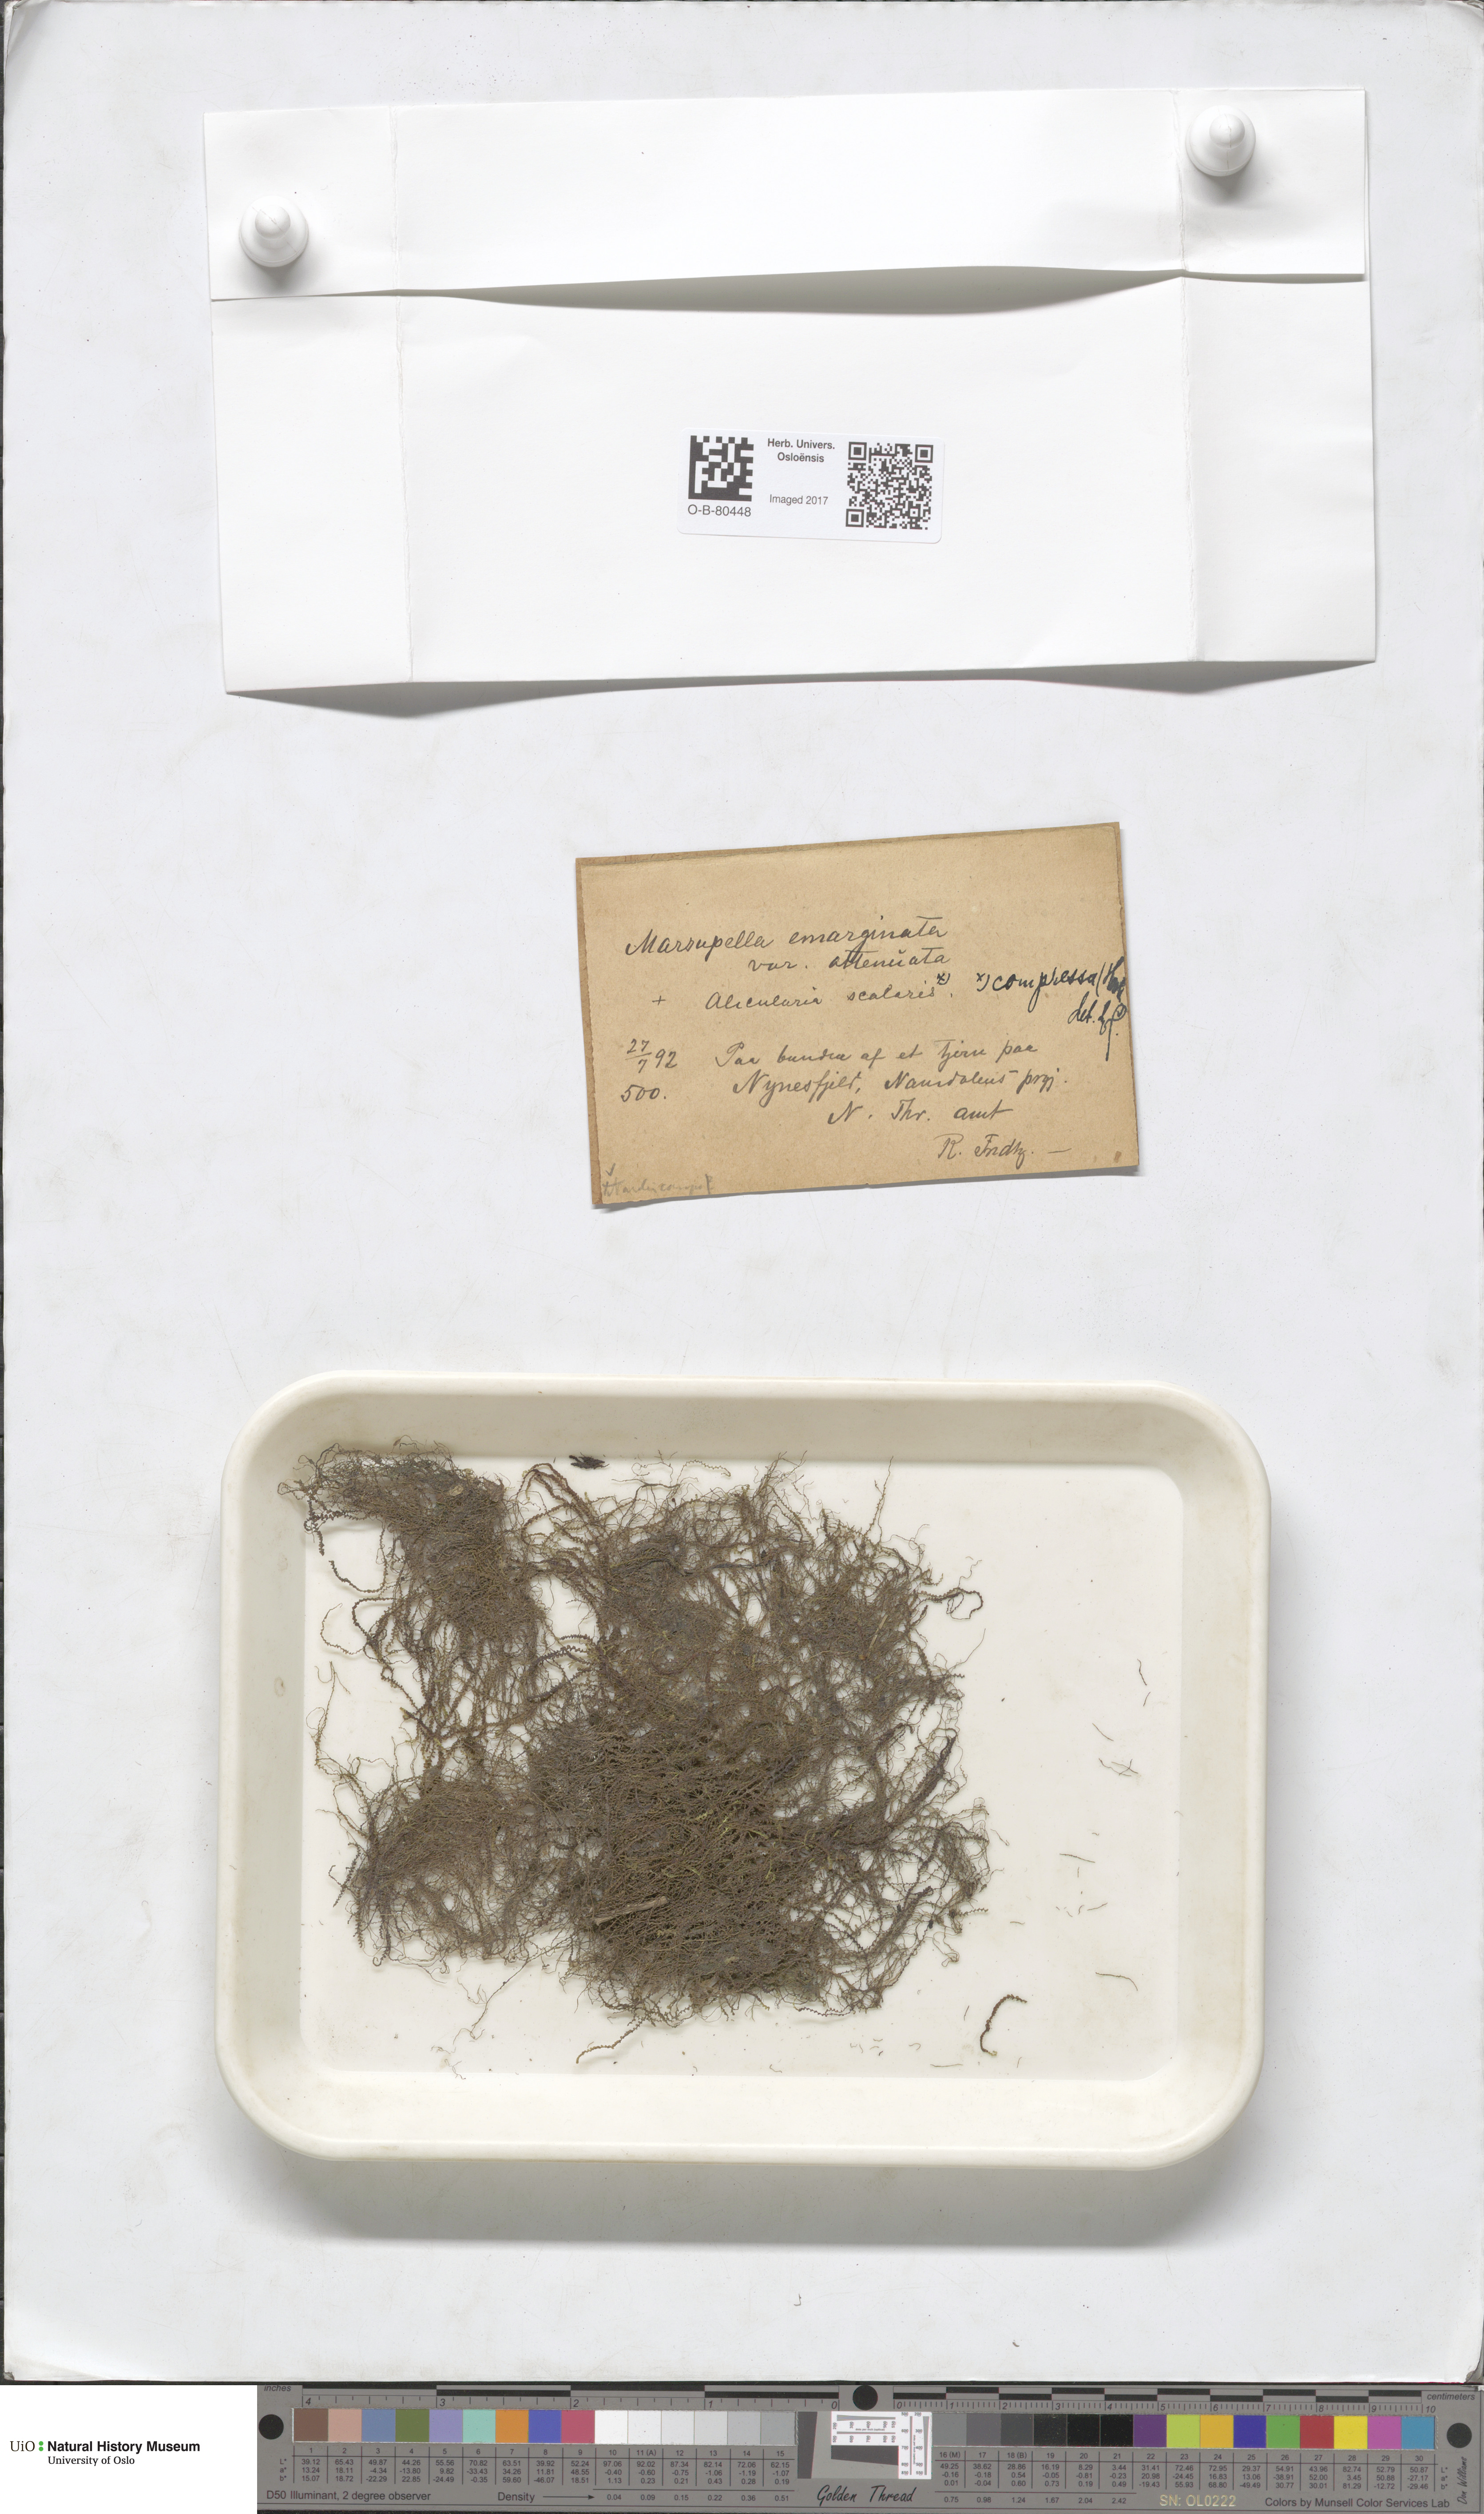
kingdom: Plantae
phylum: Marchantiophyta
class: Jungermanniopsida
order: Jungermanniales
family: Gymnomitriaceae
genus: Nardia
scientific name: Nardia compressa
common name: Compressed flapwort
